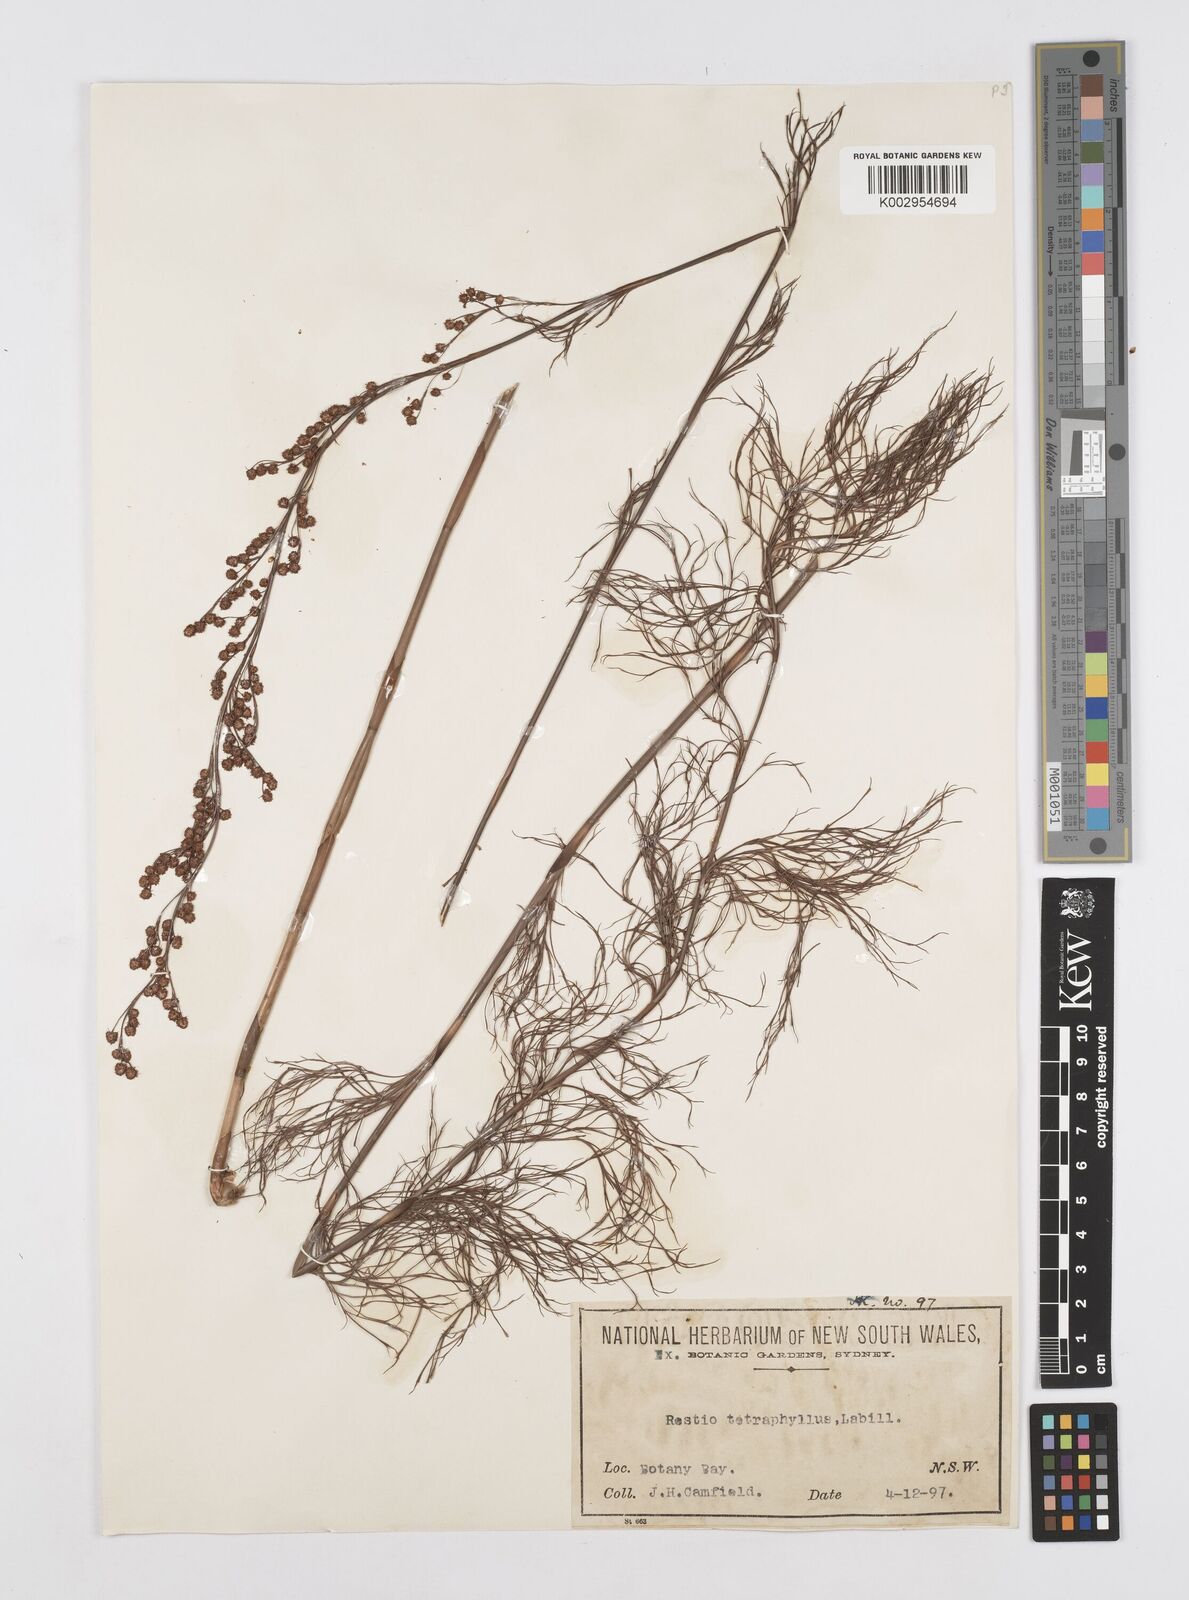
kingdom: Plantae
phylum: Tracheophyta
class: Liliopsida
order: Poales
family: Restionaceae
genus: Baloskion
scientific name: Baloskion tetraphyllum
